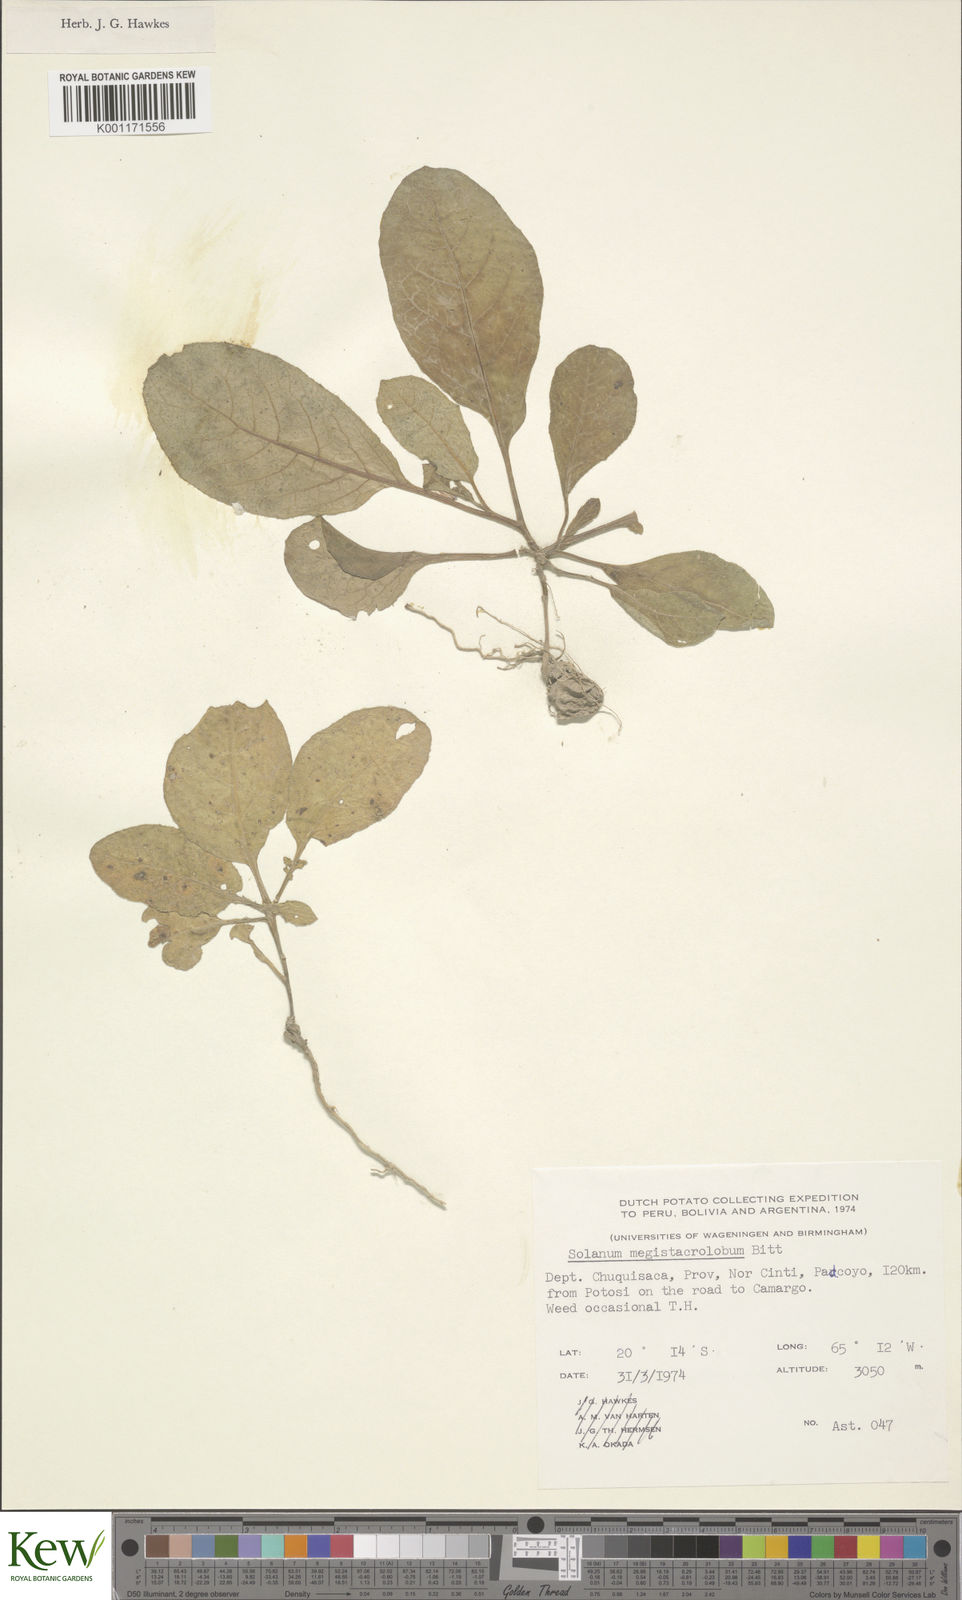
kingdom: Plantae
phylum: Tracheophyta
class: Magnoliopsida
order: Solanales
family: Solanaceae
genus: Solanum
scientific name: Solanum
